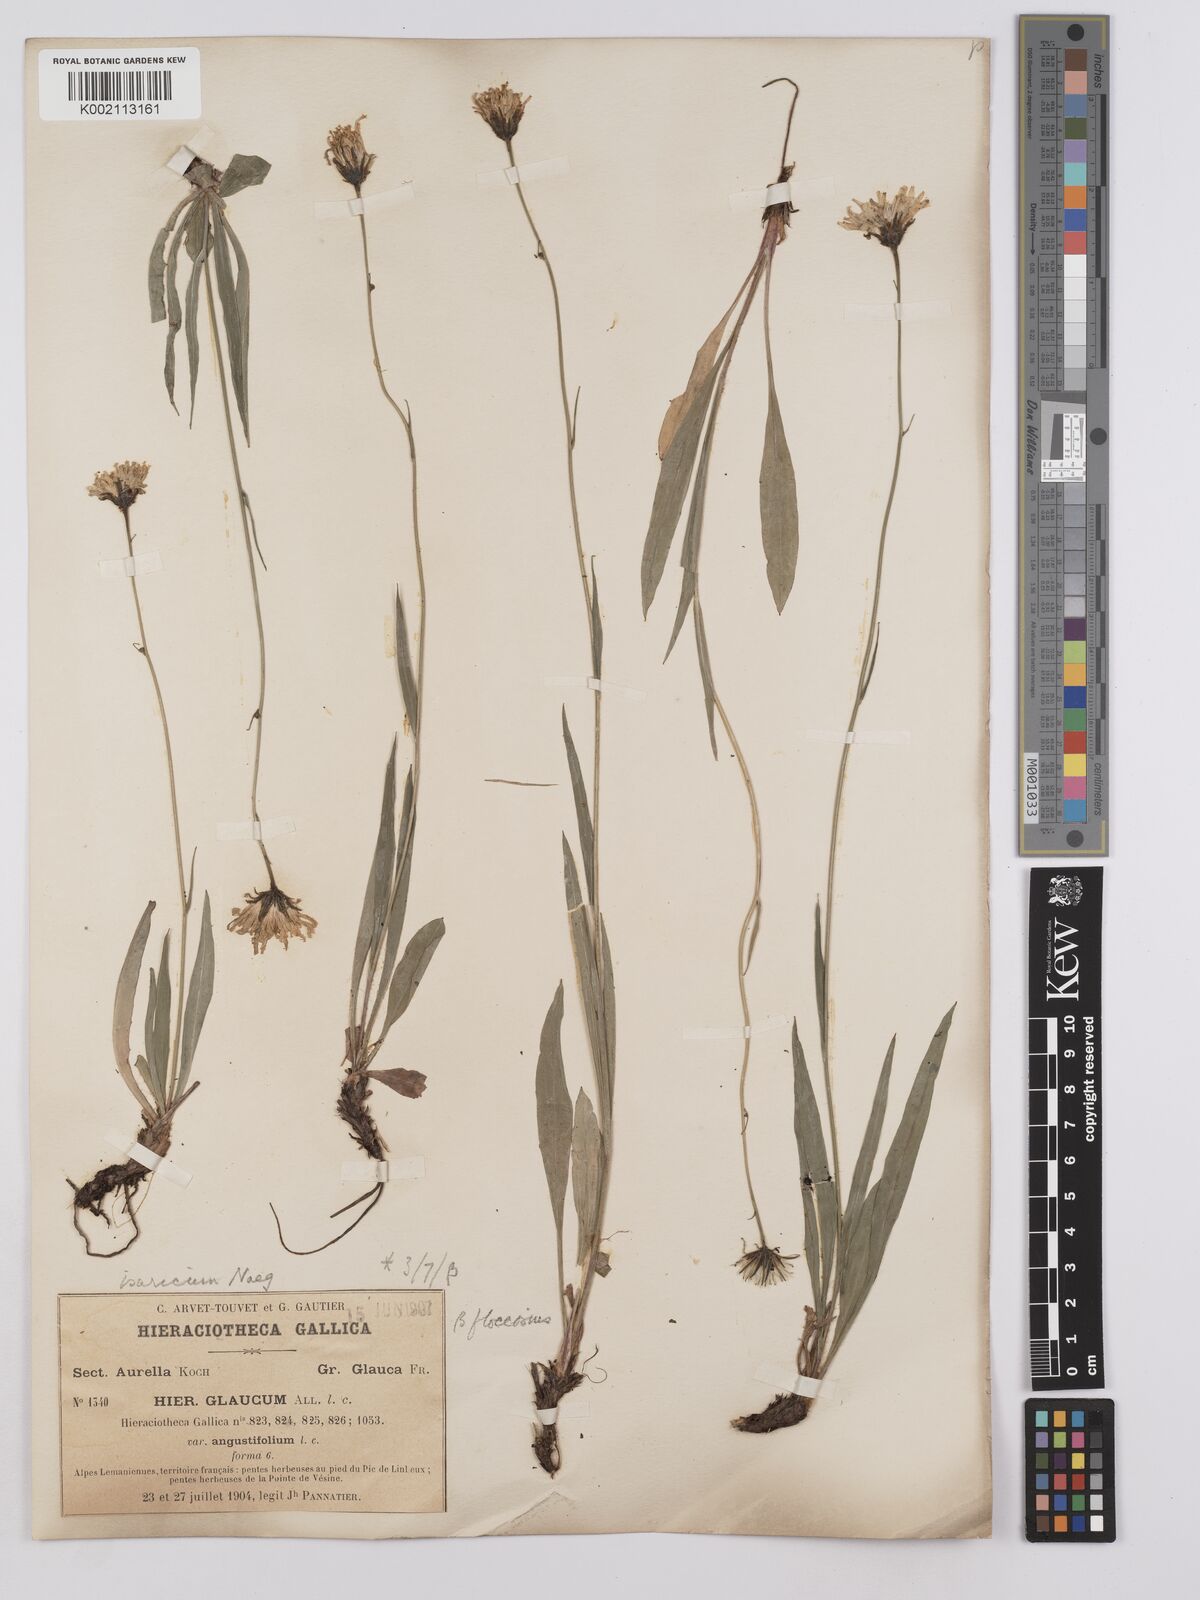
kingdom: Plantae
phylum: Tracheophyta
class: Magnoliopsida
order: Asterales
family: Asteraceae
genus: Hieracium
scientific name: Hieracium glaucum
